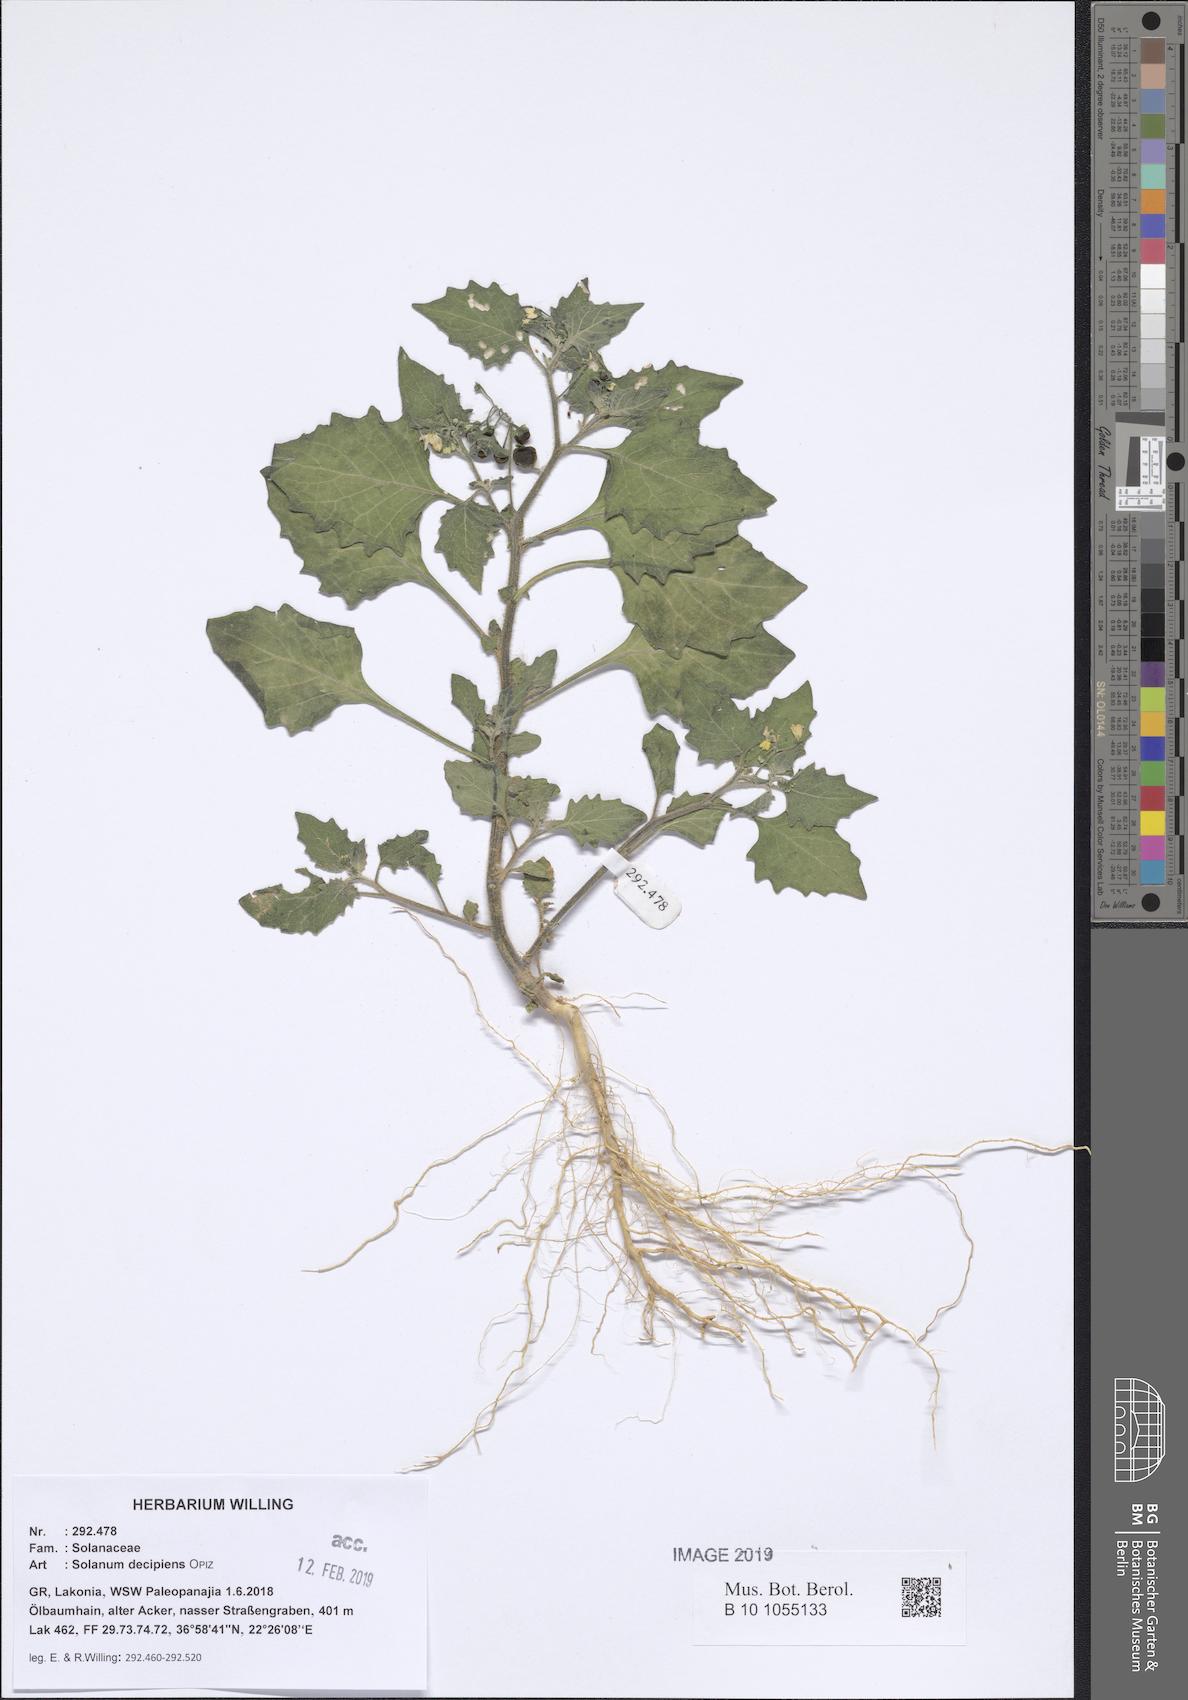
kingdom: Plantae
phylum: Tracheophyta
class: Magnoliopsida
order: Solanales
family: Solanaceae
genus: Solanum
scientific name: Solanum decipiens
